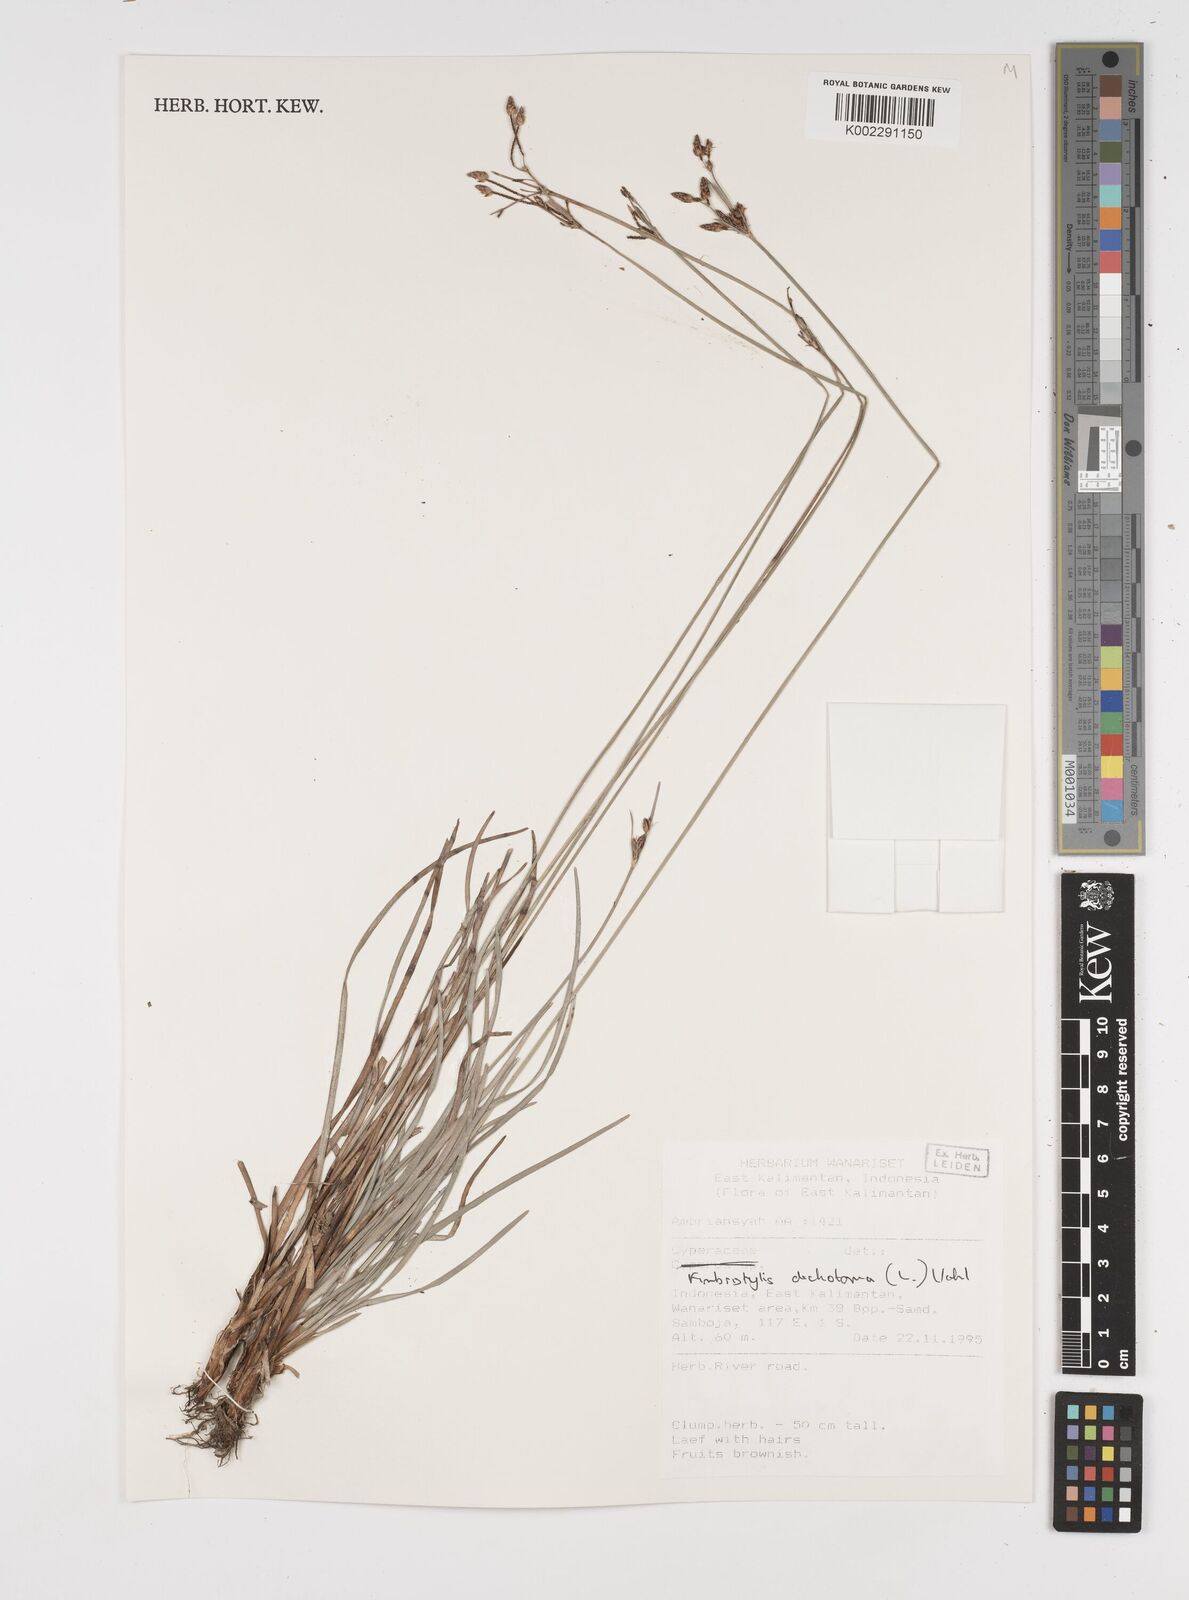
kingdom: Plantae
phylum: Tracheophyta
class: Liliopsida
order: Poales
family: Cyperaceae
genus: Fimbristylis
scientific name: Fimbristylis dichotoma
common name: Forked fimbry
